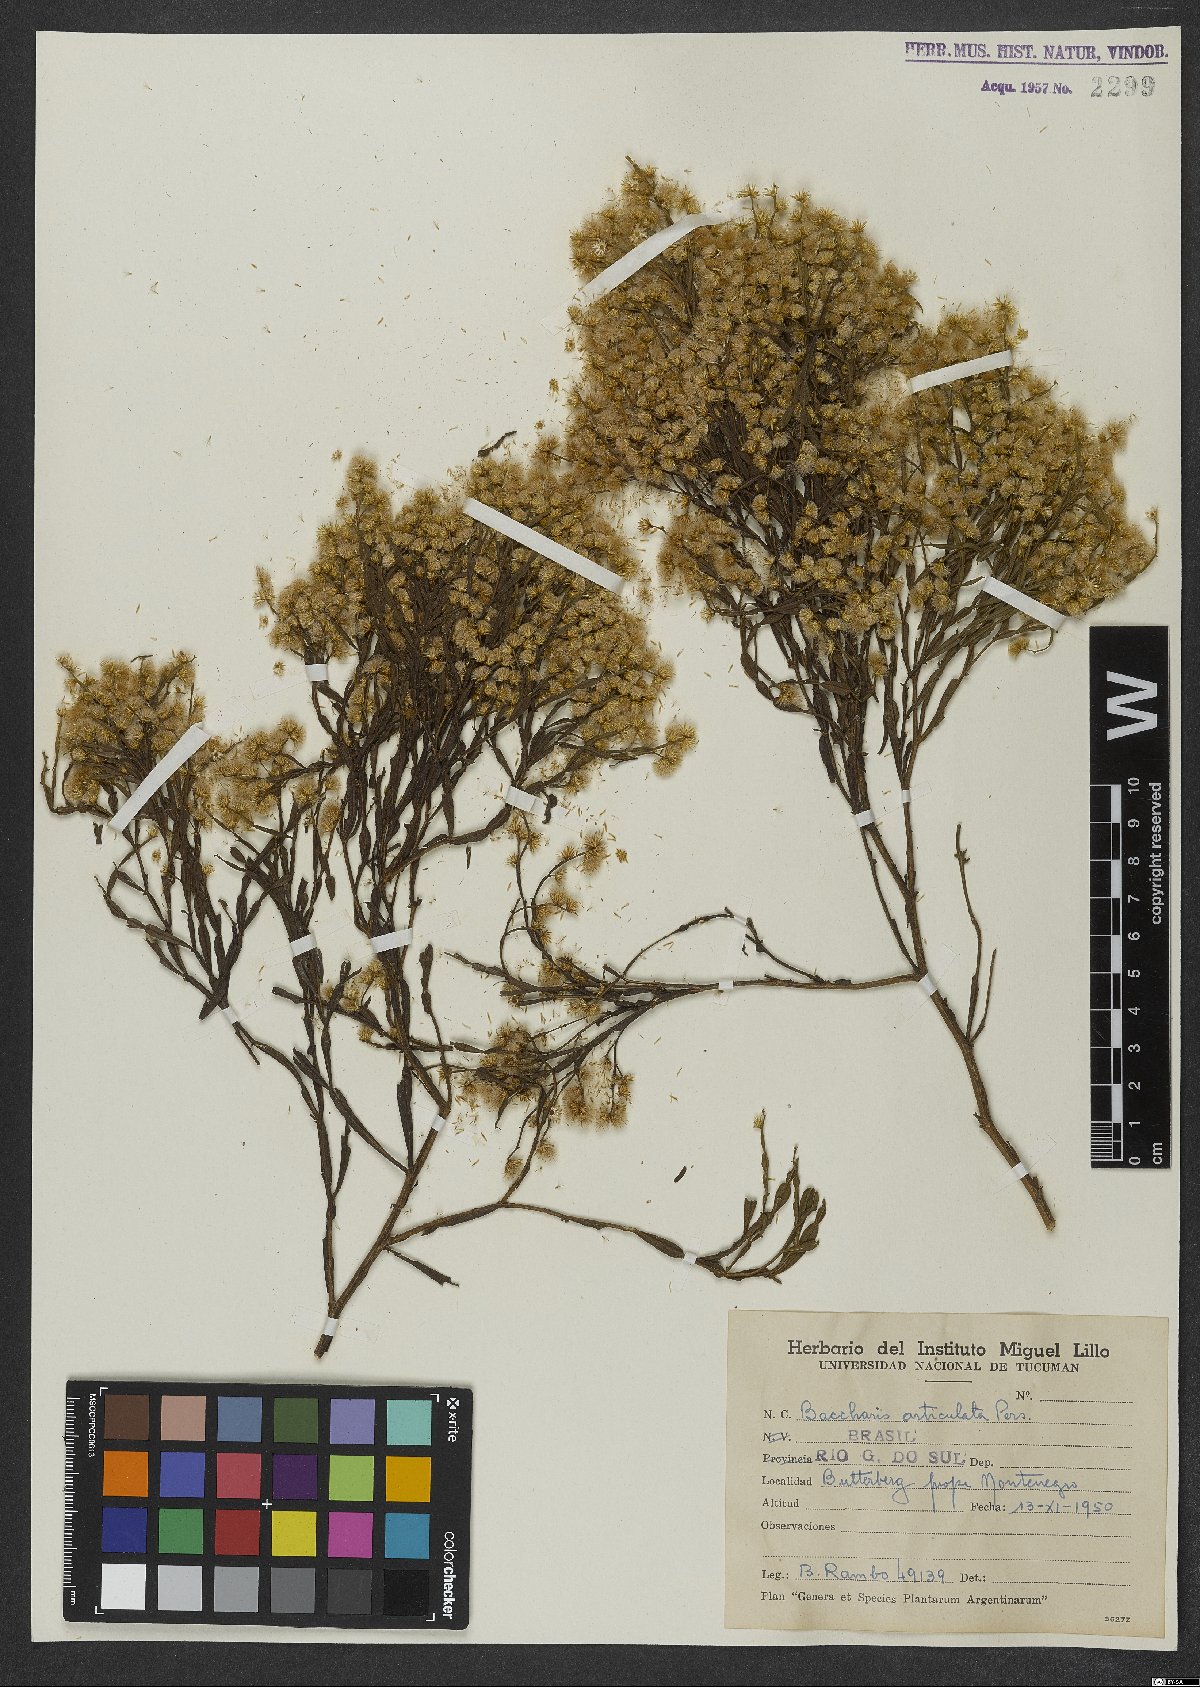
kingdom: Plantae
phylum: Tracheophyta
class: Magnoliopsida
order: Asterales
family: Asteraceae
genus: Baccharis
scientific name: Baccharis articulata
